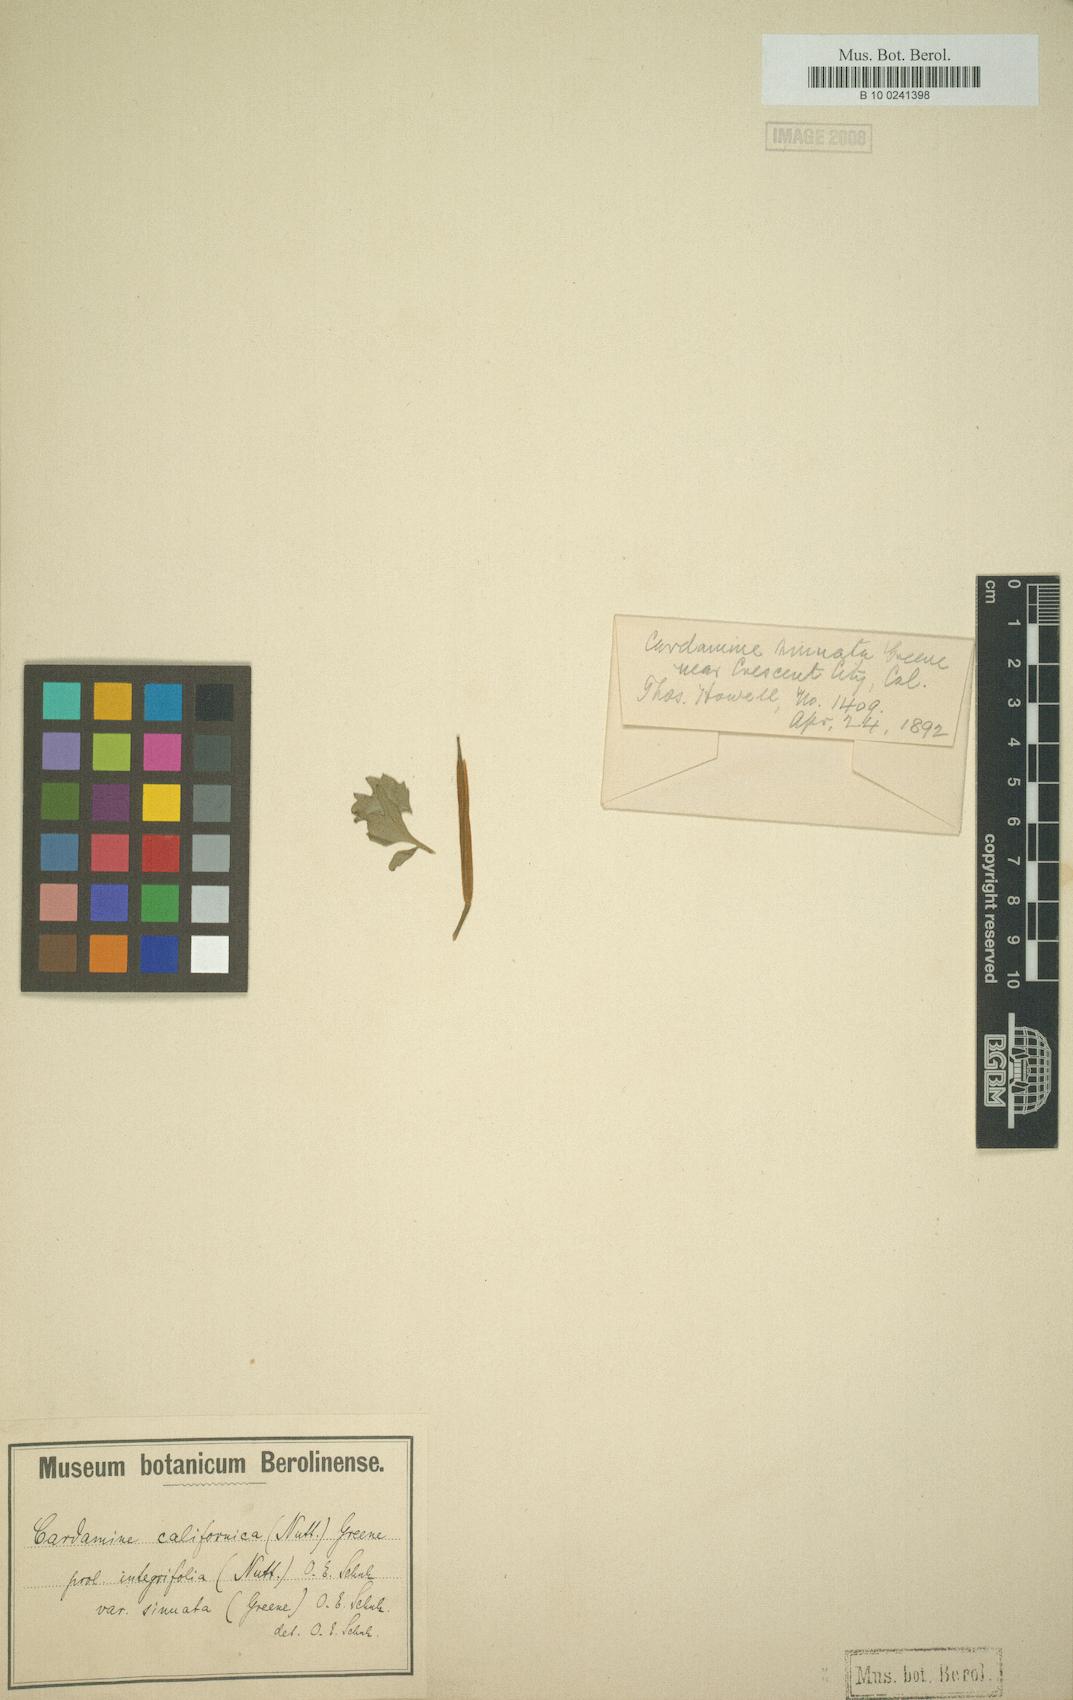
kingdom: Plantae
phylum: Tracheophyta
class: Magnoliopsida
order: Brassicales
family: Brassicaceae
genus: Cardamine
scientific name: Cardamine californica
